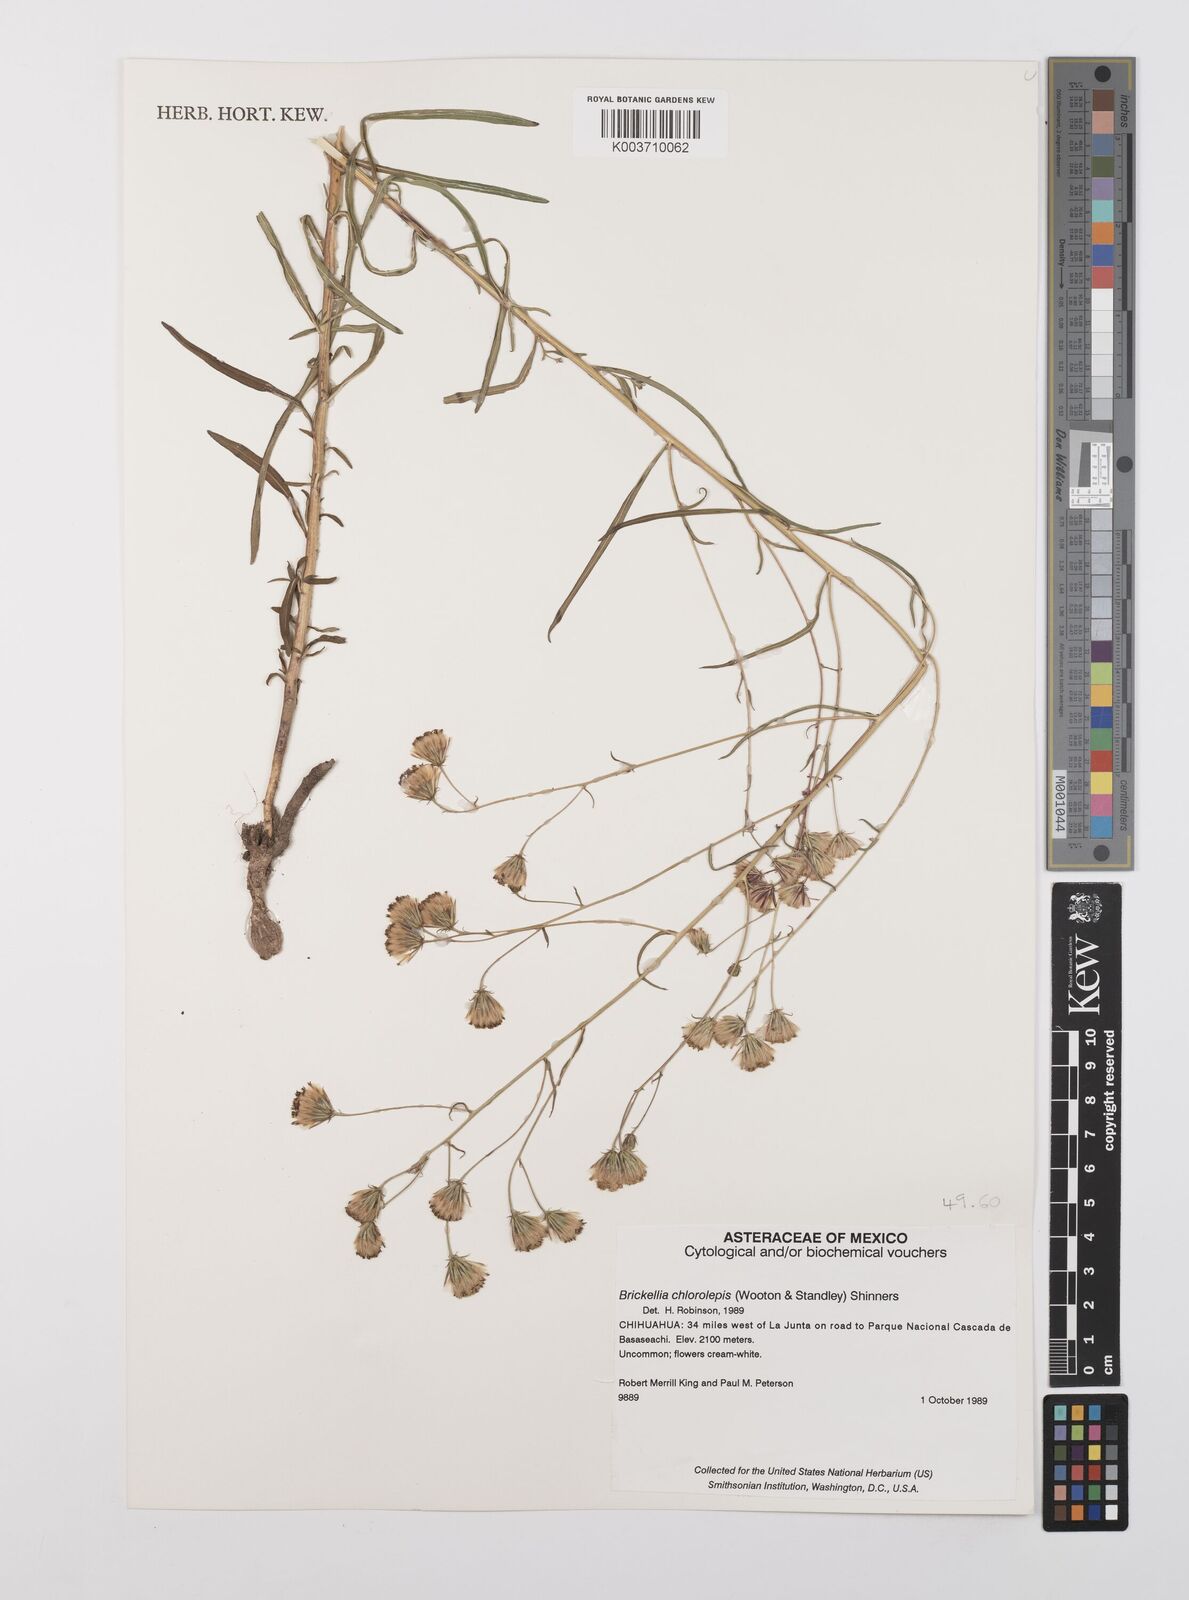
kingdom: Plantae
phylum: Tracheophyta
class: Magnoliopsida
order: Asterales
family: Asteraceae
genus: Brickellia
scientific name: Brickellia leptophylla
